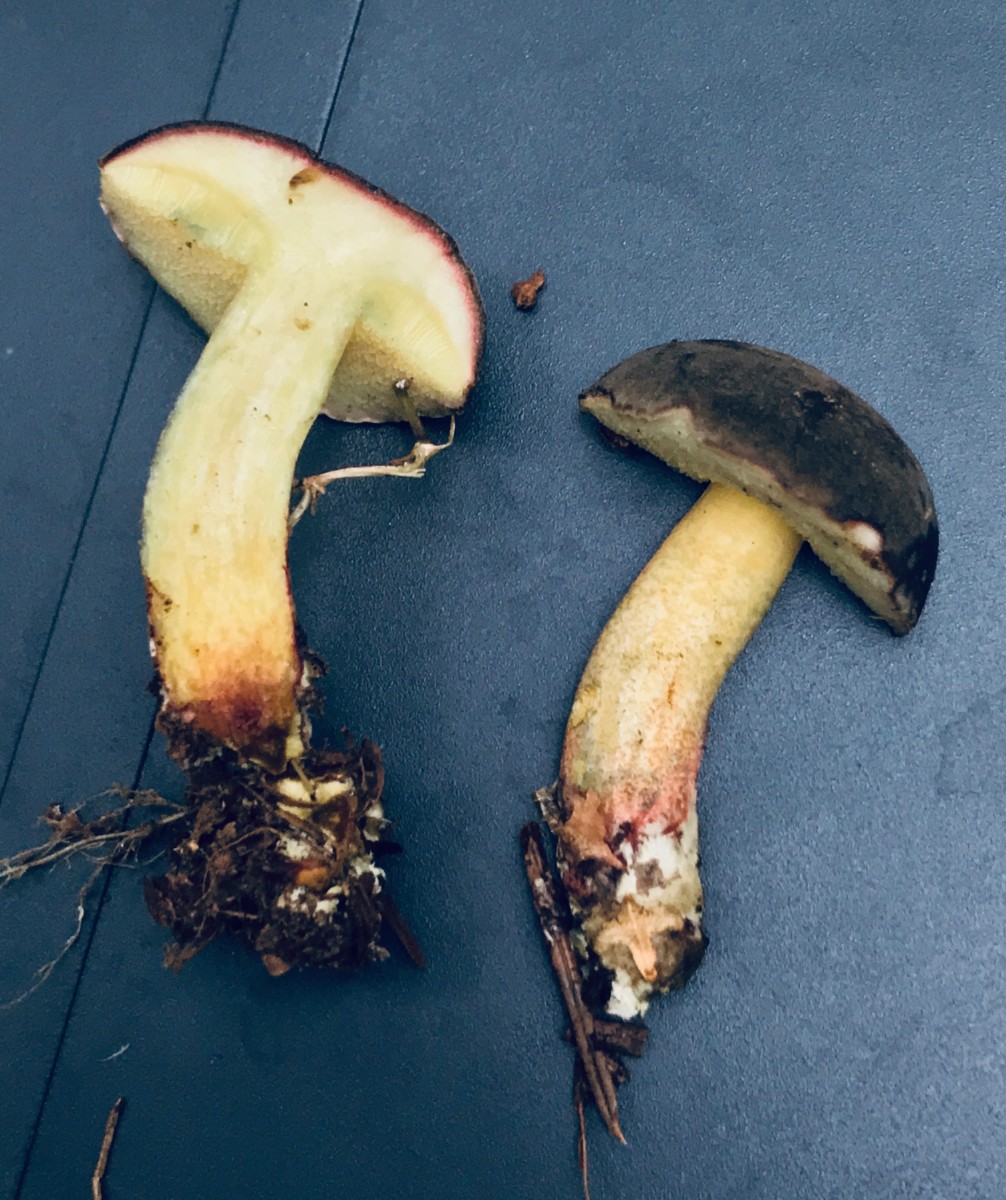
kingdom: Fungi
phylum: Basidiomycota
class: Agaricomycetes
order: Boletales
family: Boletaceae
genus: Xerocomellus
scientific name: Xerocomellus pruinatus
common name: dugget rørhat
